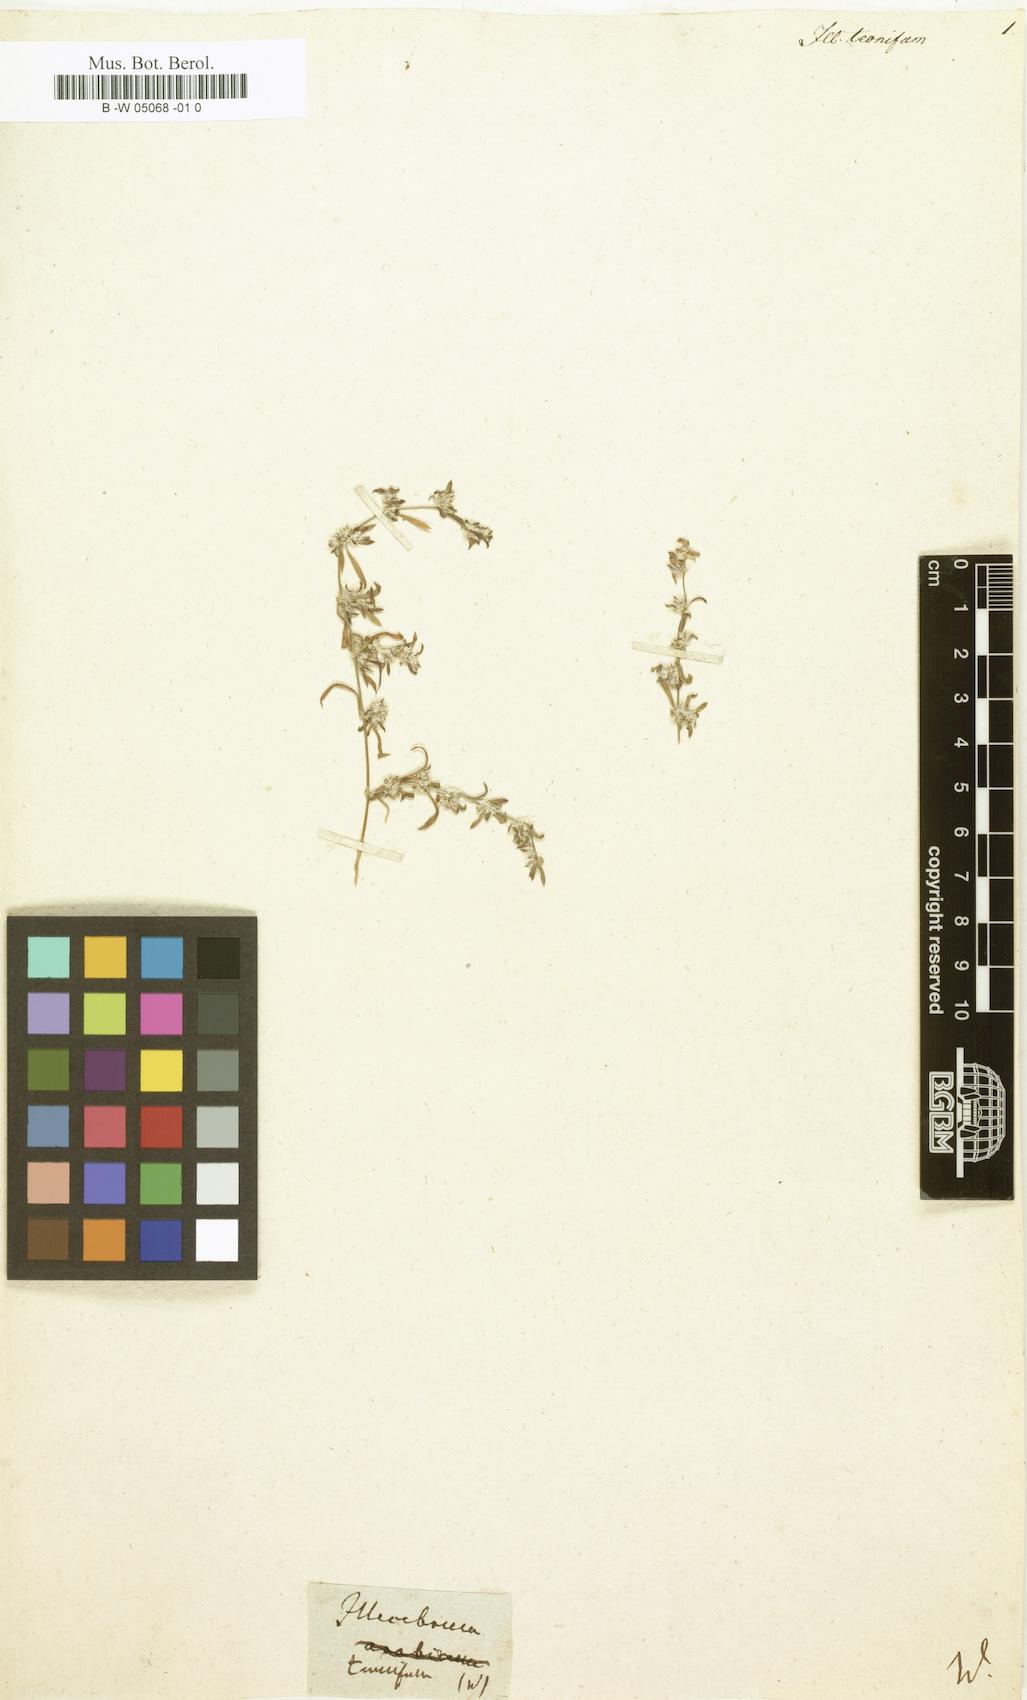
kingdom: Plantae
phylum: Tracheophyta
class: Magnoliopsida
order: Caryophyllales
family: Caryophyllaceae
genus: Paronychia
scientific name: Paronychia tenuifolia
